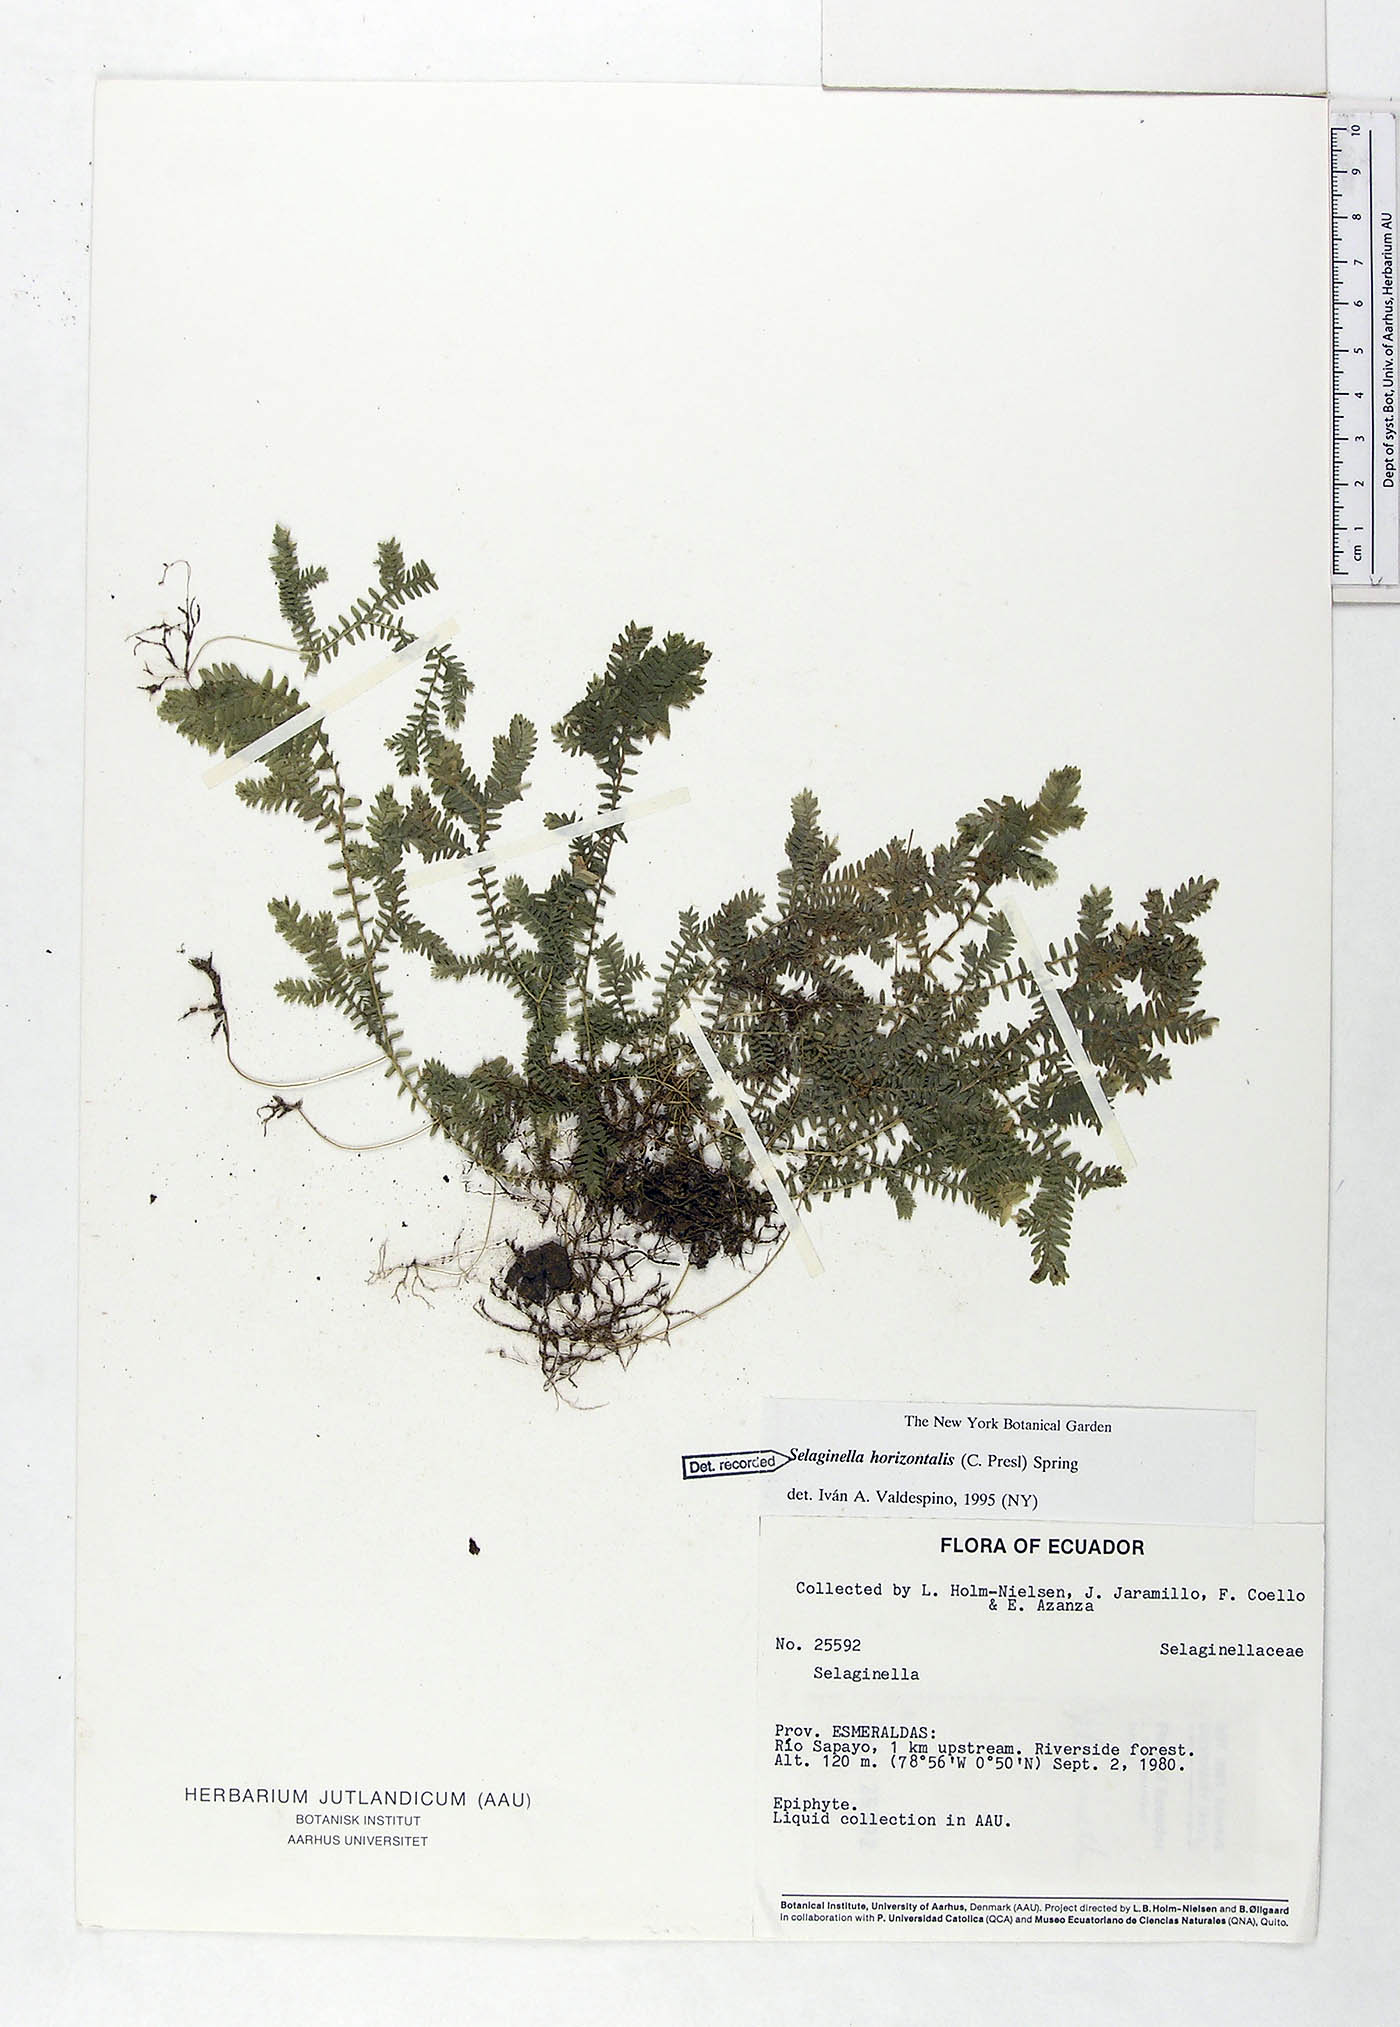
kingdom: Plantae
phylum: Tracheophyta
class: Lycopodiopsida
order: Selaginellales
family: Selaginellaceae
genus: Selaginella
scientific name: Selaginella horizontalis
